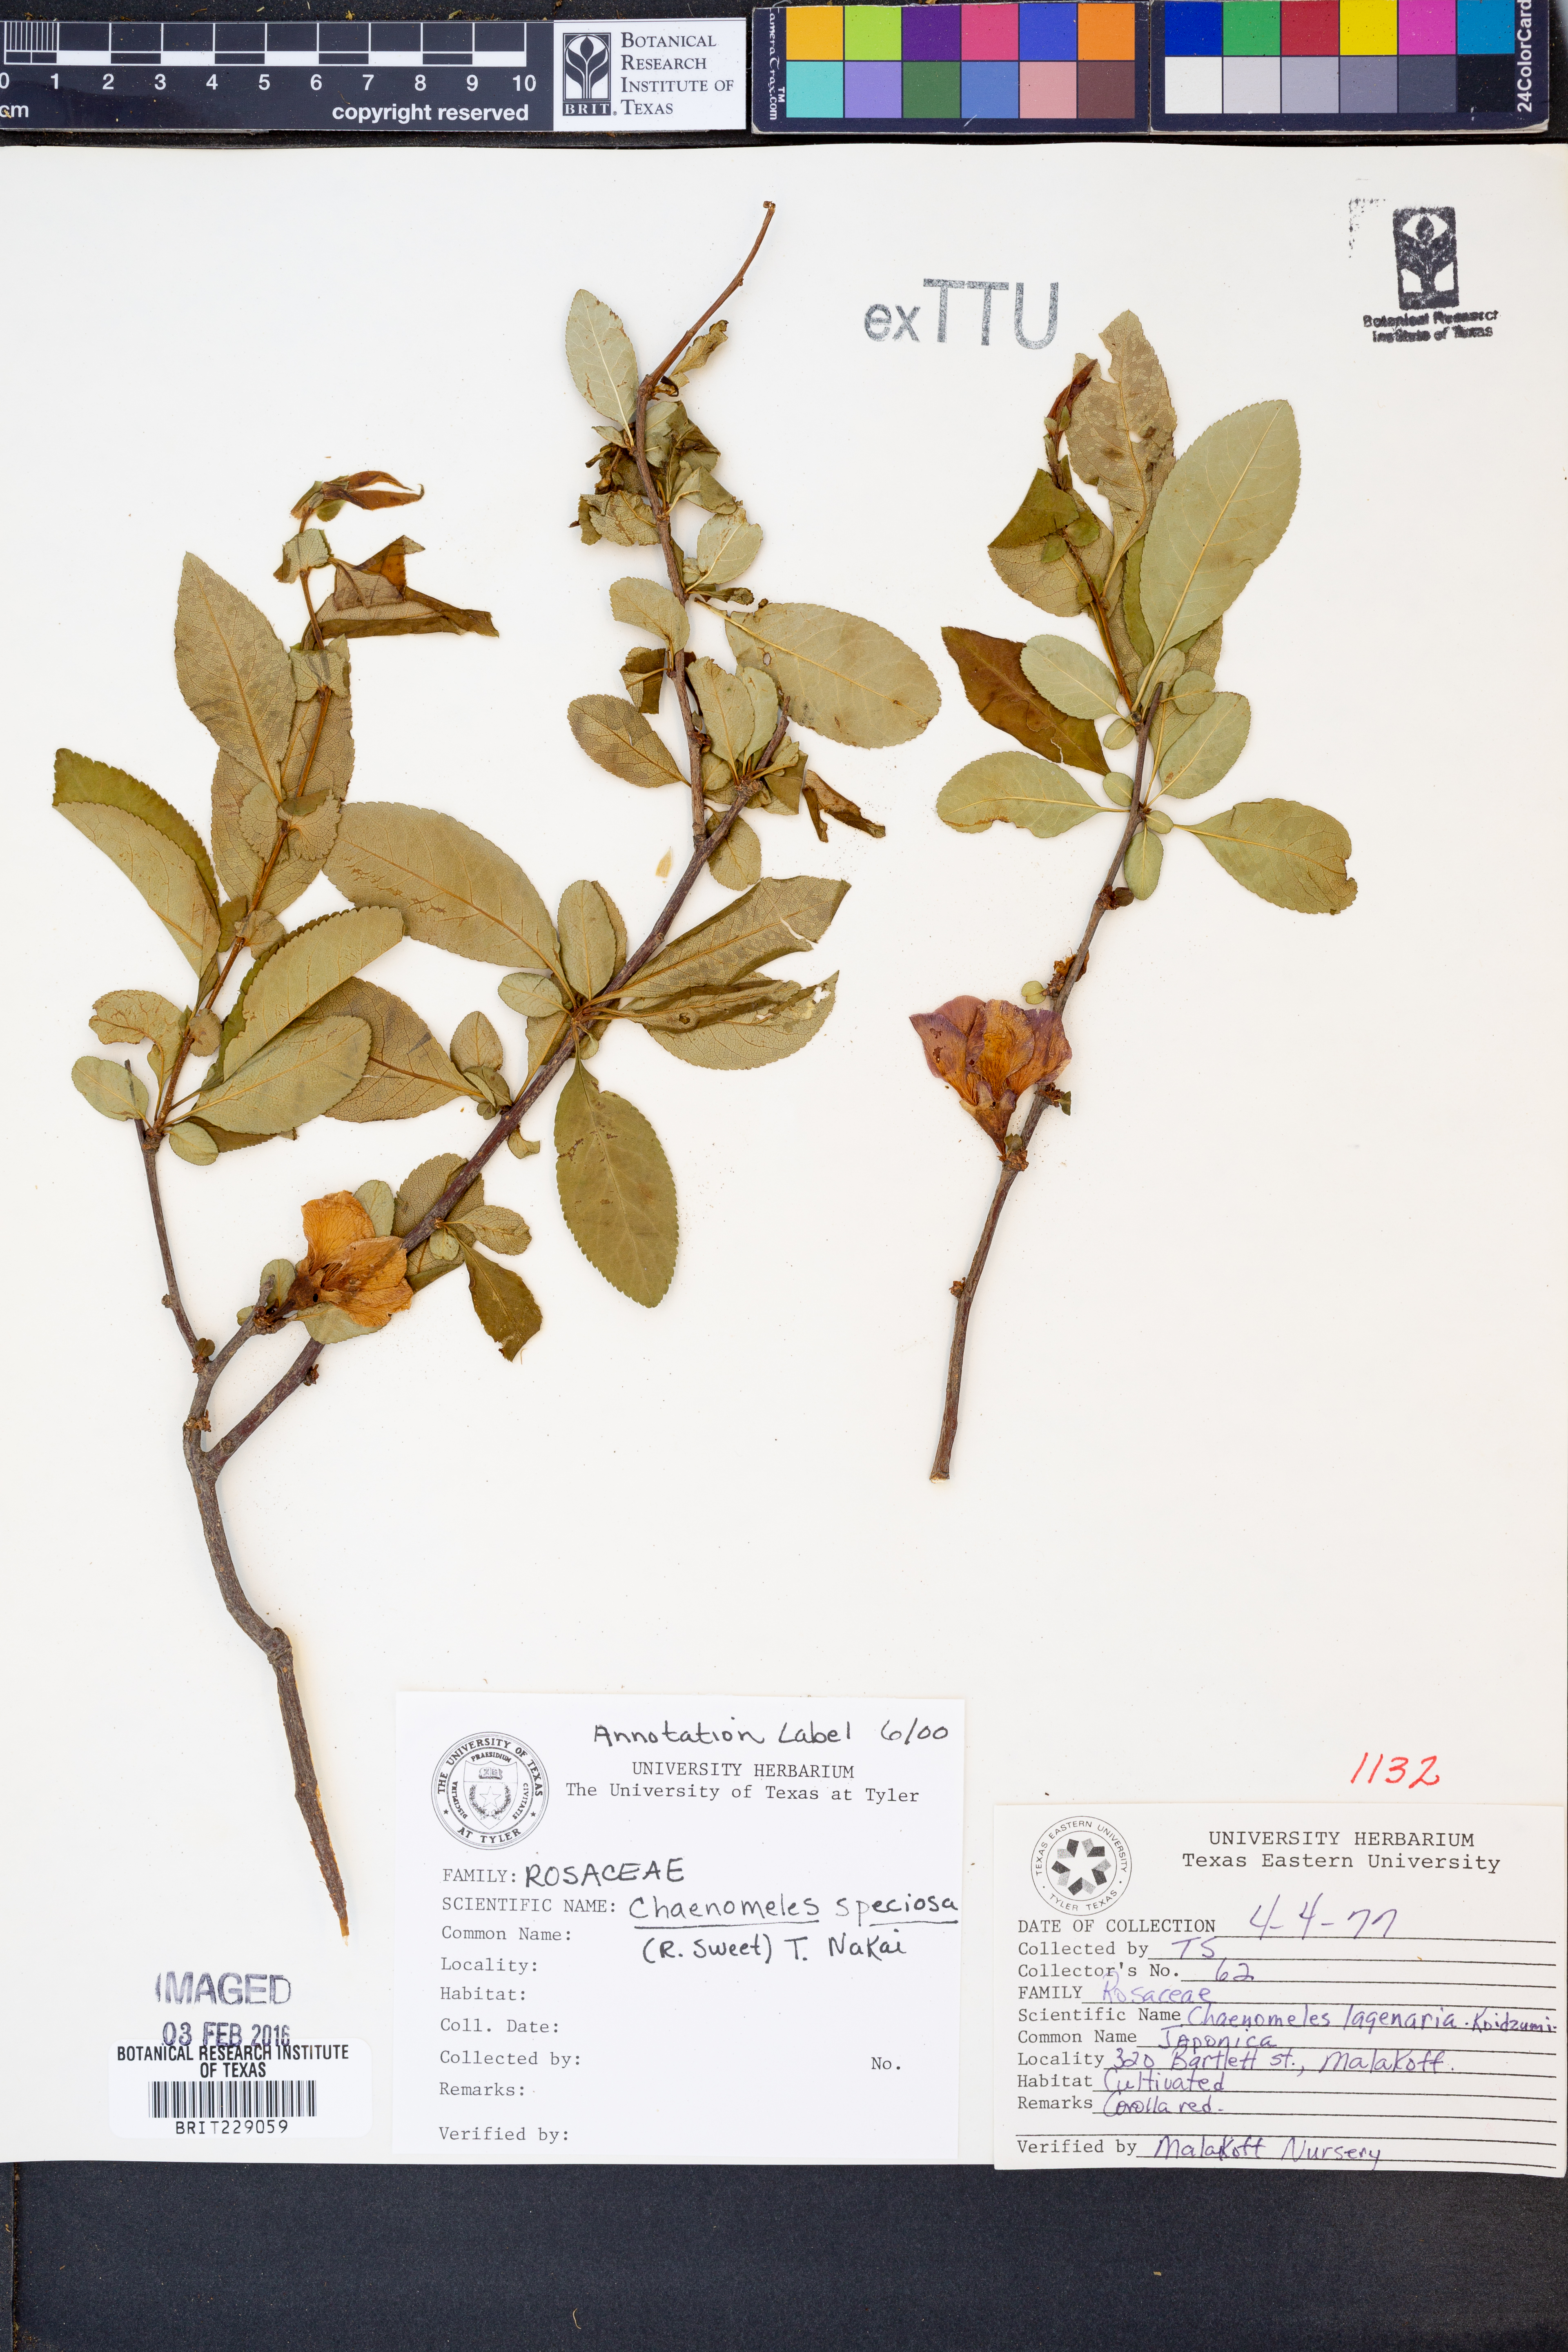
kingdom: Plantae
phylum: Tracheophyta
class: Magnoliopsida
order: Rosales
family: Rosaceae
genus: Chaenomeles
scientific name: Chaenomeles speciosa
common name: Japanese quince
